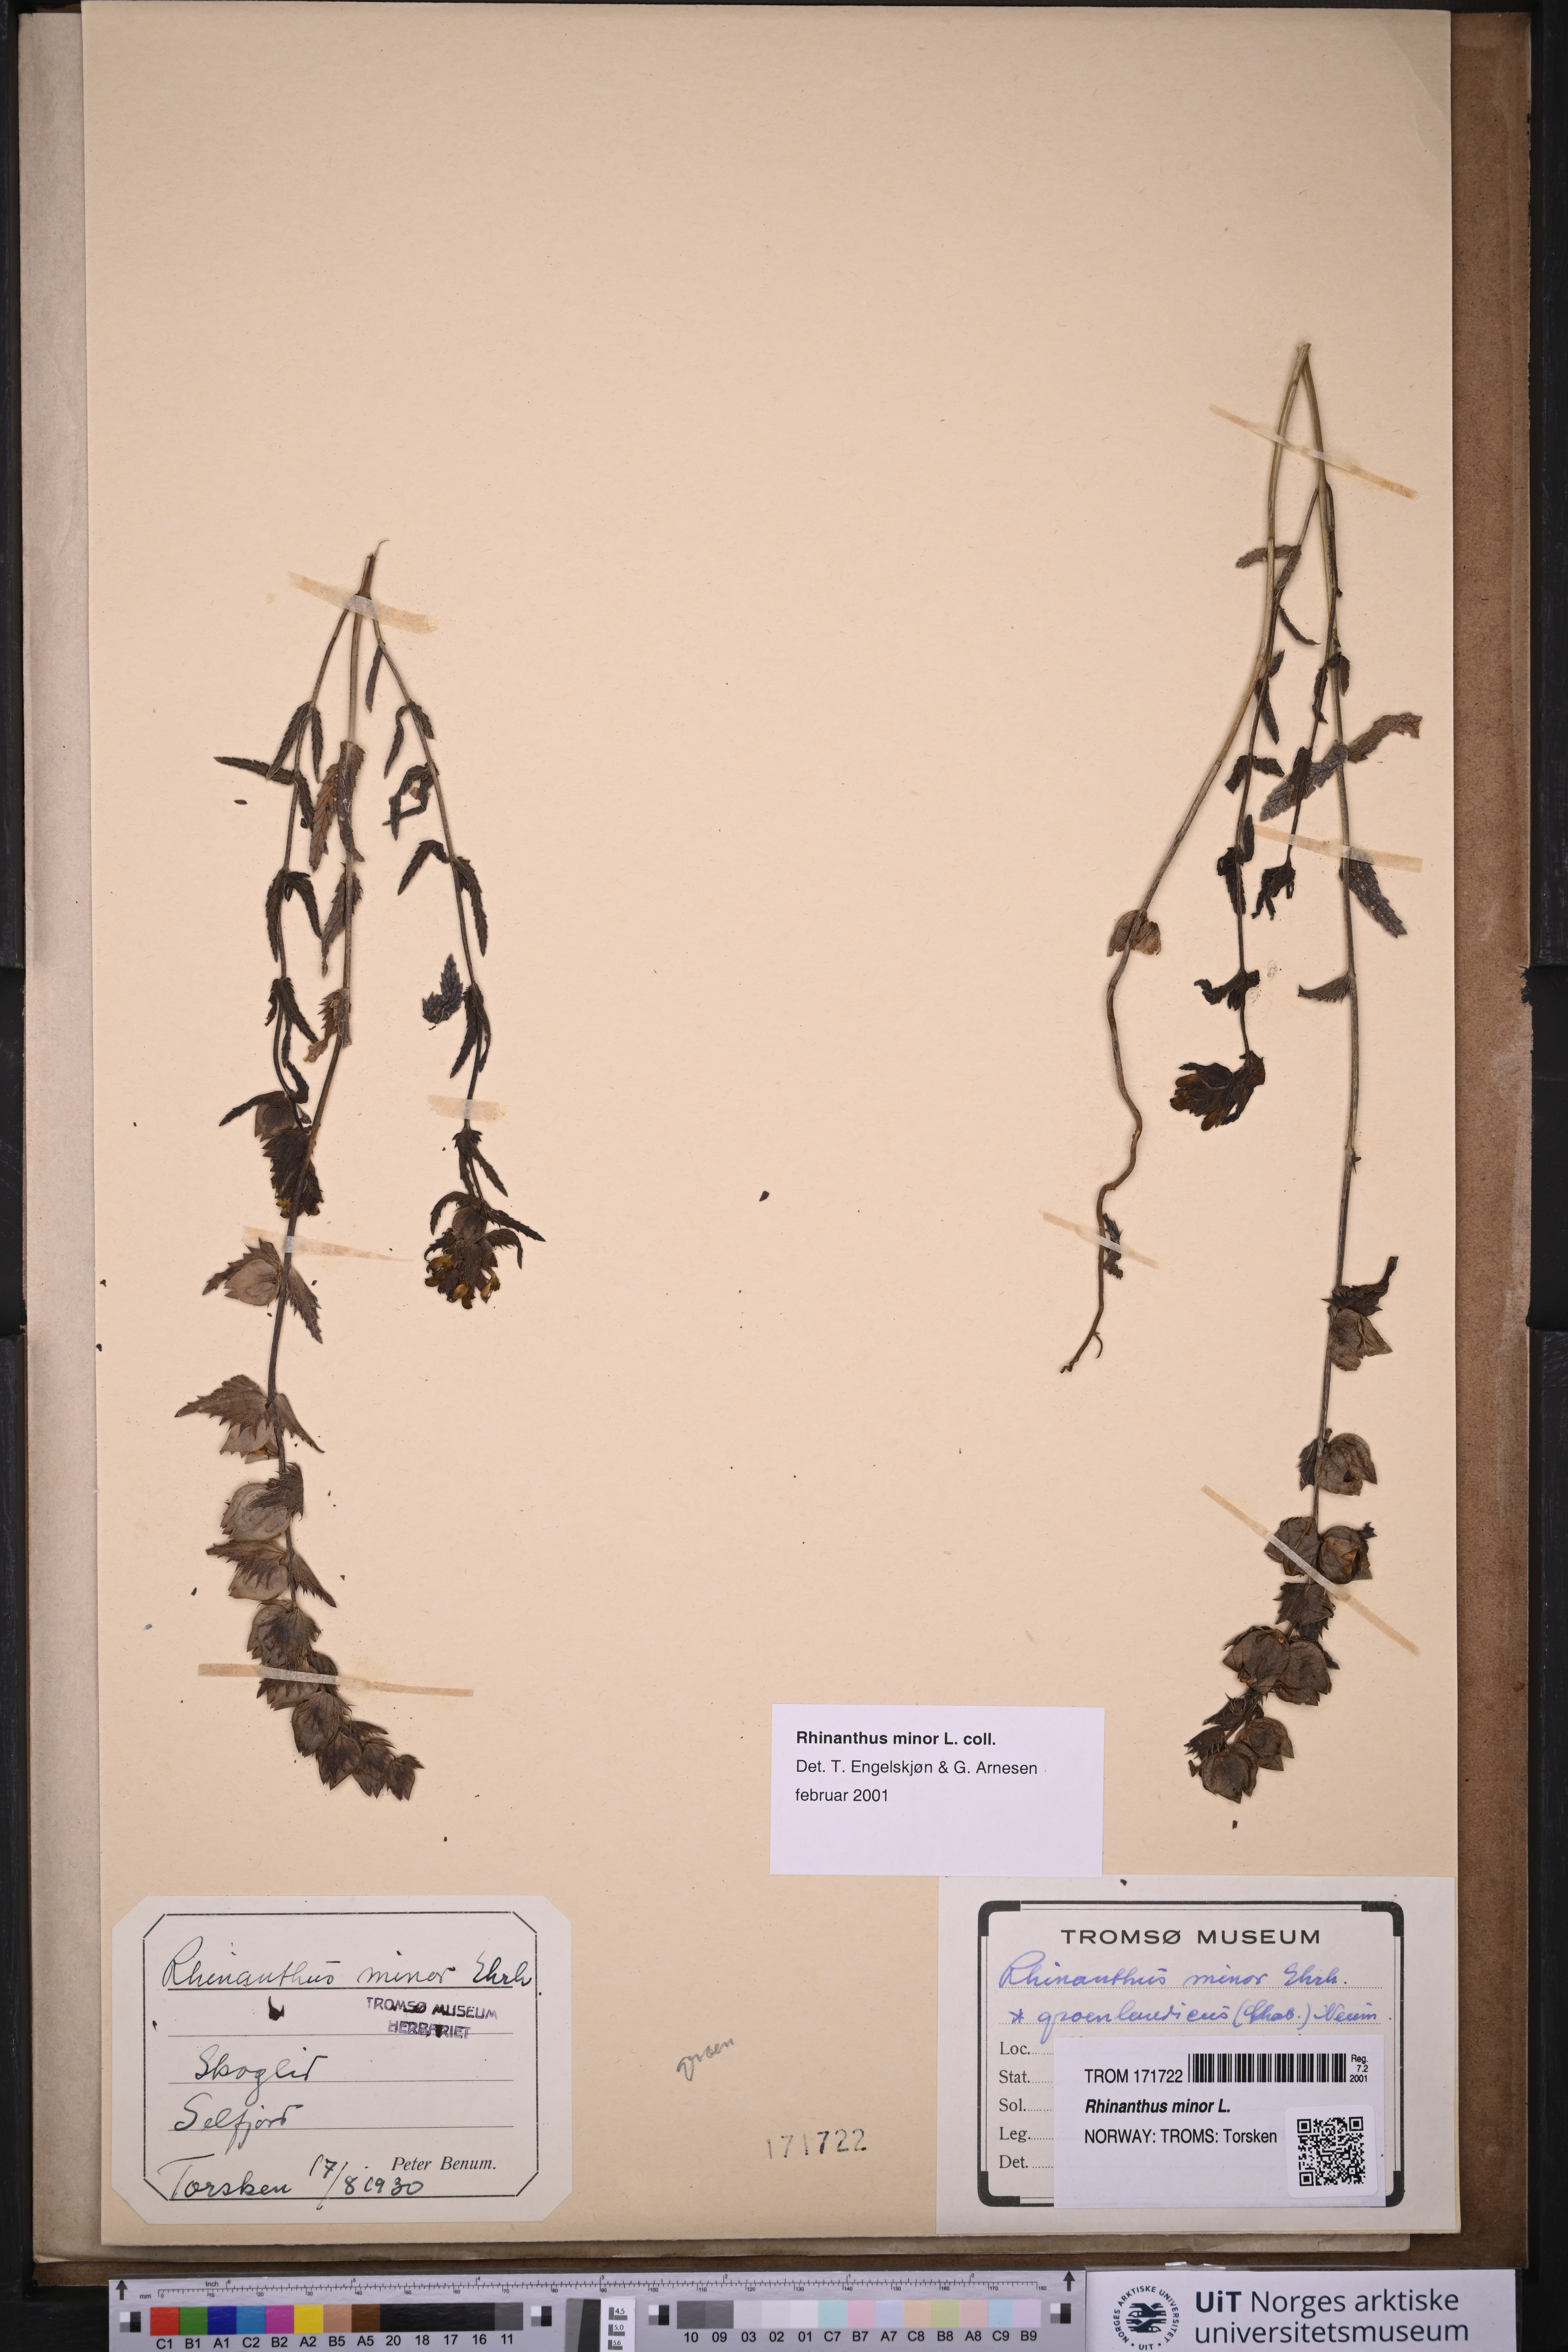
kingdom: Plantae
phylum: Tracheophyta
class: Magnoliopsida
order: Lamiales
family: Orobanchaceae
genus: Rhinanthus
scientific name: Rhinanthus minor
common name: Yellow-rattle
